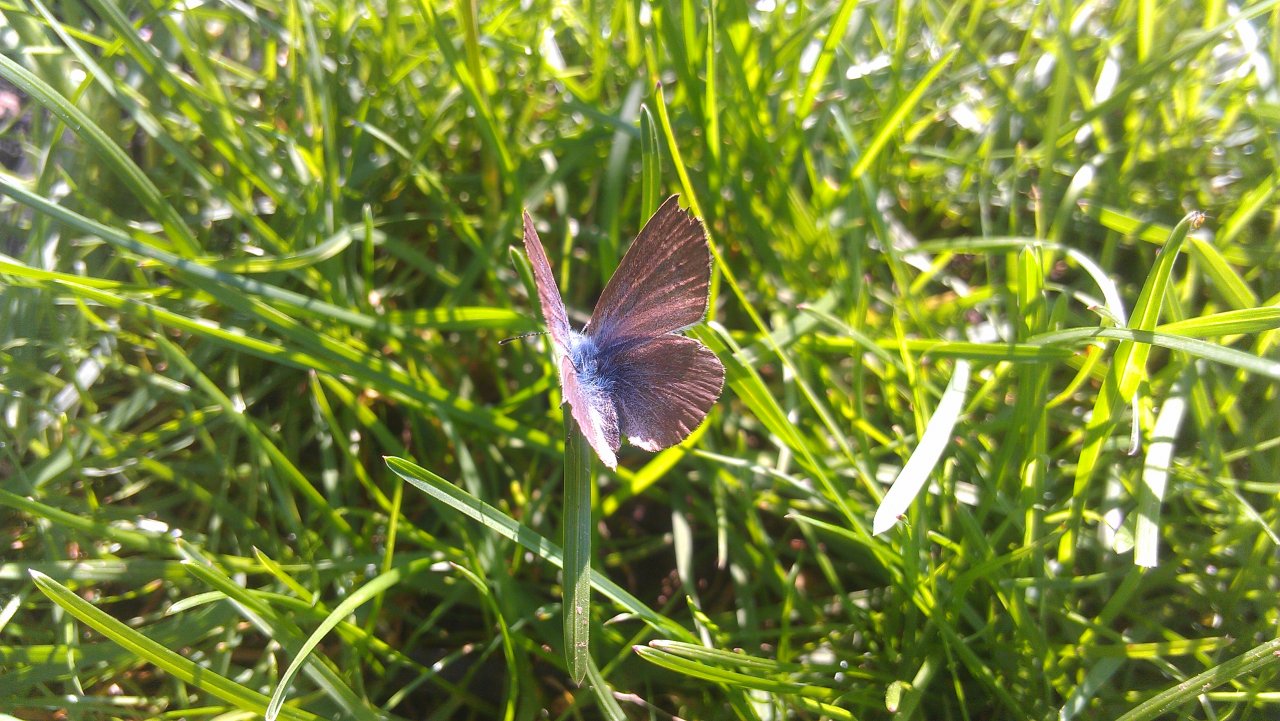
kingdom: Animalia
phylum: Arthropoda
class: Insecta
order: Lepidoptera
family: Lycaenidae
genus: Glaucopsyche
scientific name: Glaucopsyche lygdamus
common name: Silvery Blue
